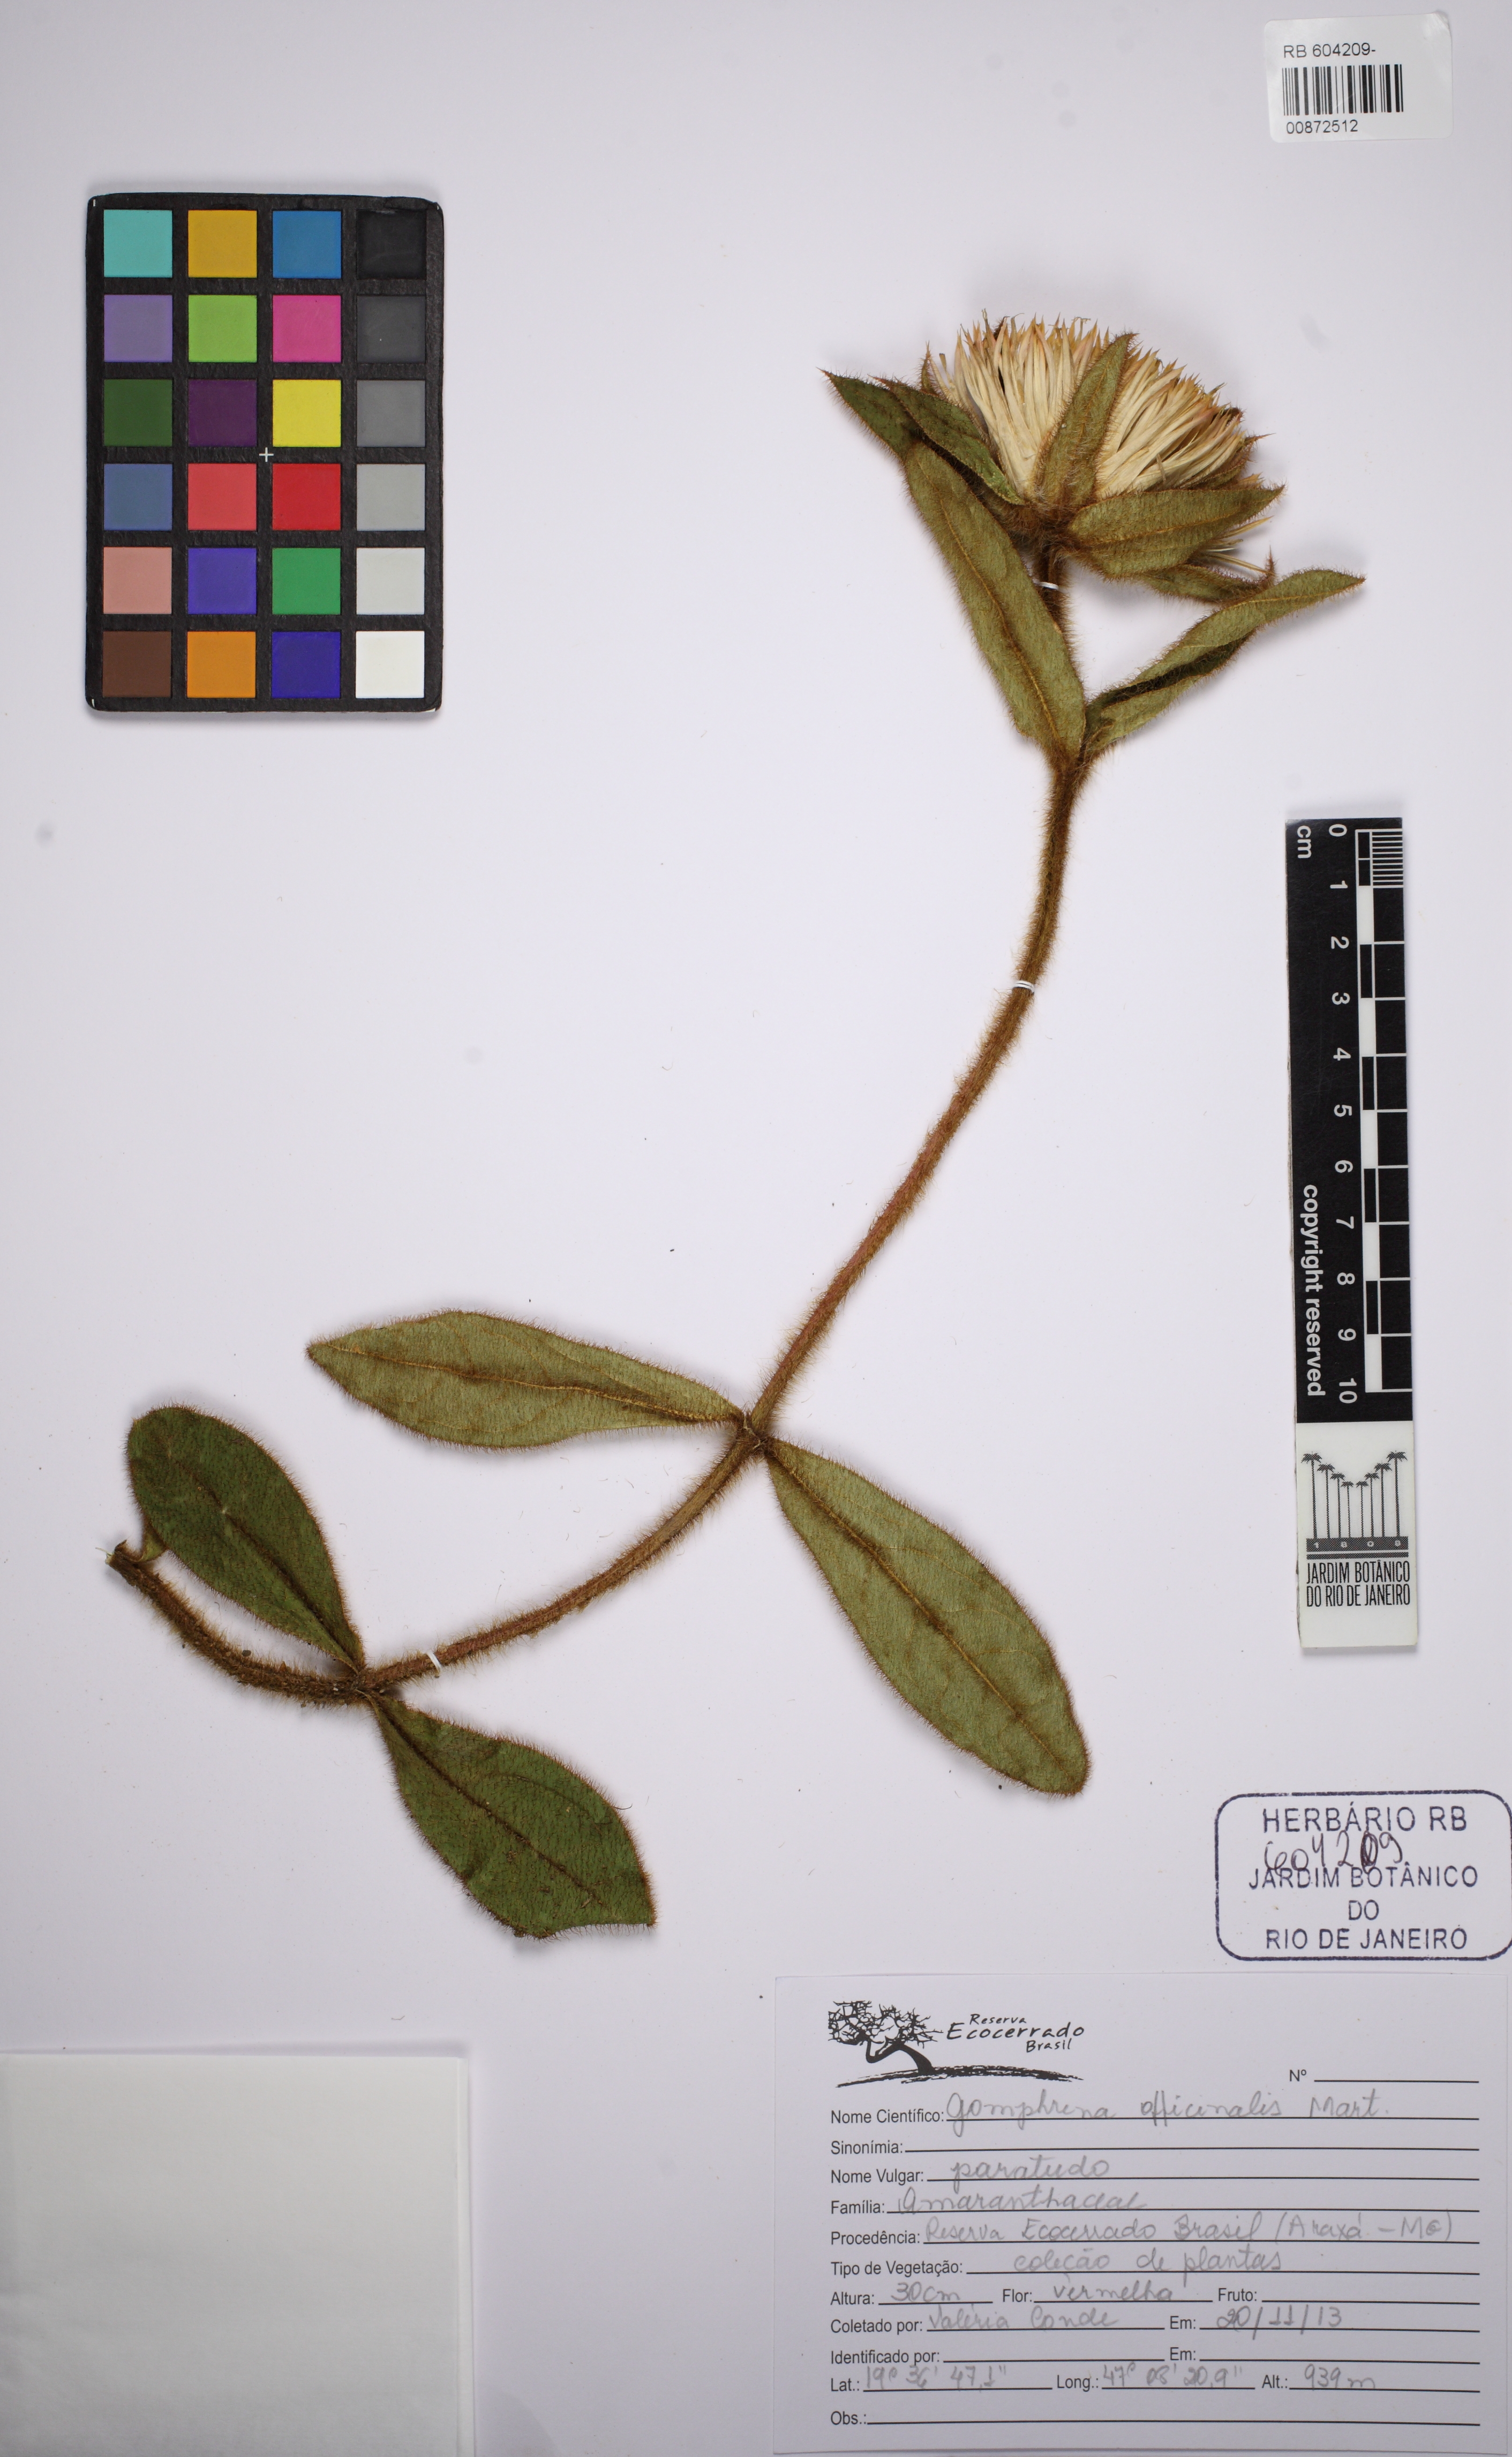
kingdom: Plantae
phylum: Tracheophyta
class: Magnoliopsida
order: Caryophyllales
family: Amaranthaceae
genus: Gomphrena
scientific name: Gomphrena arborescens
